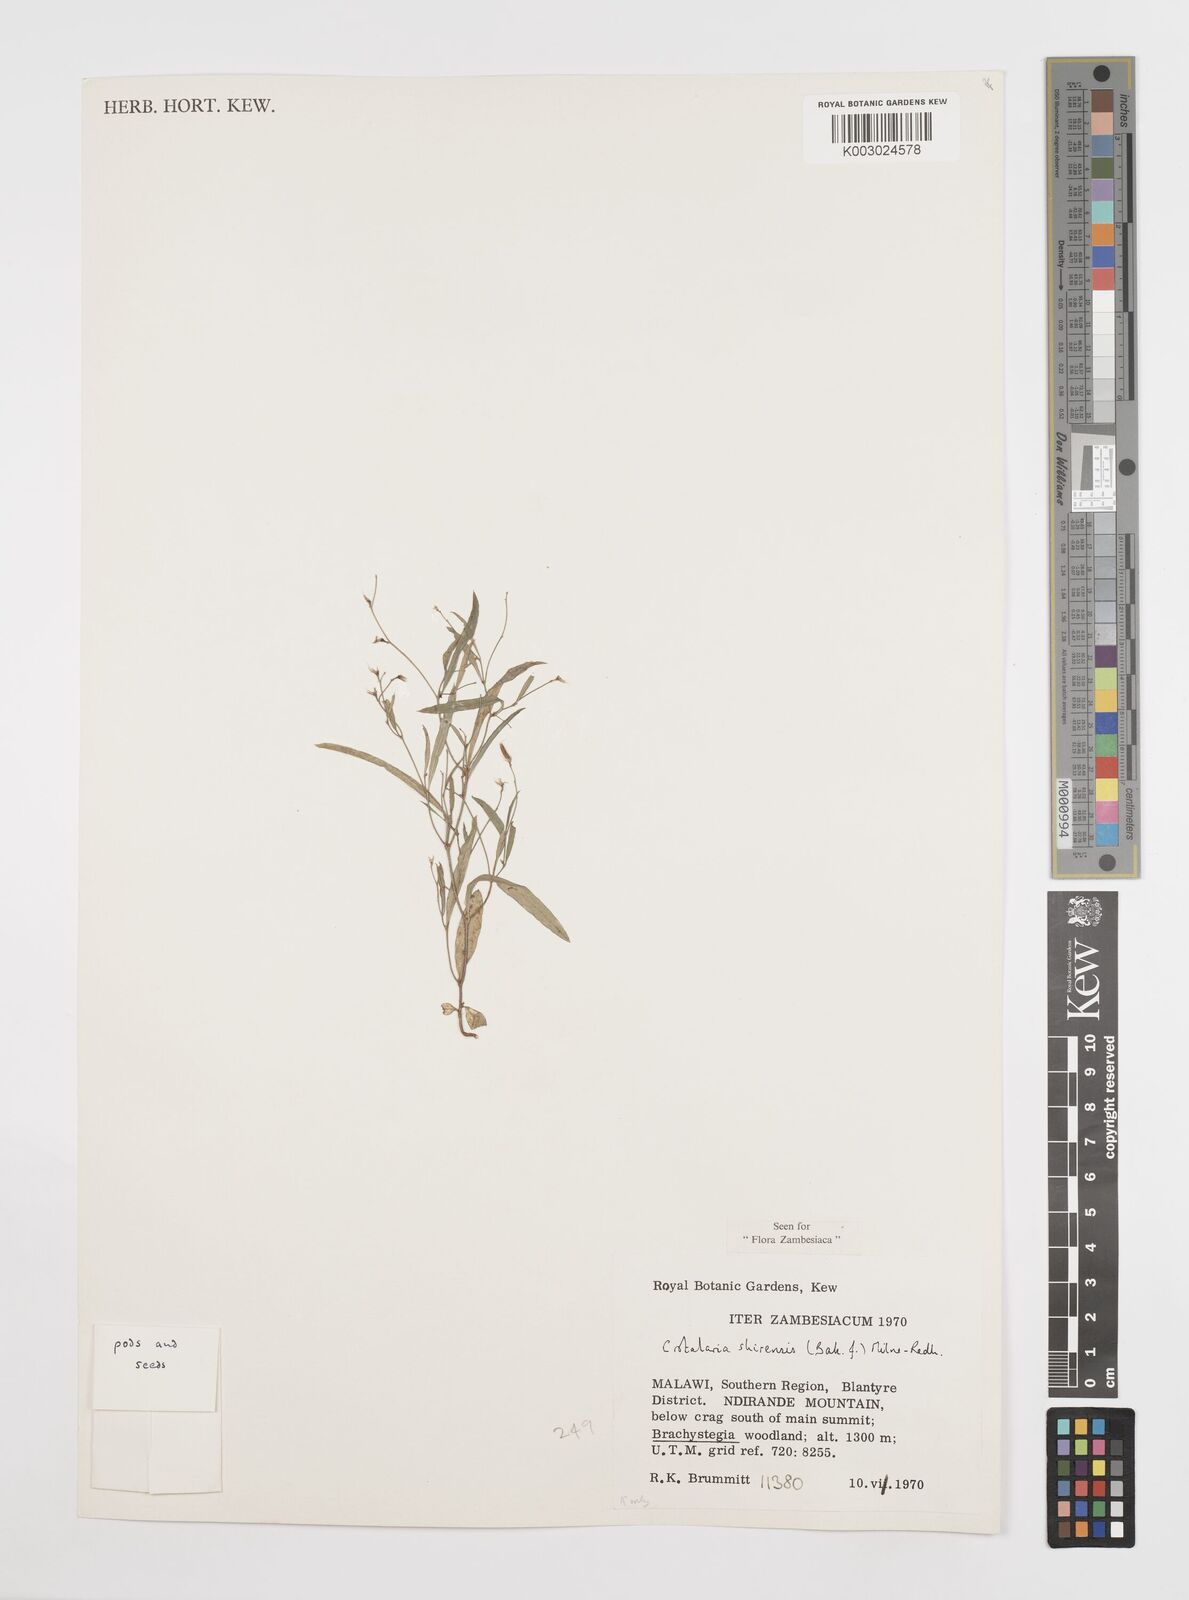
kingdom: Plantae
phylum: Tracheophyta
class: Magnoliopsida
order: Fabales
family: Fabaceae
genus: Crotalaria
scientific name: Crotalaria shirensis
